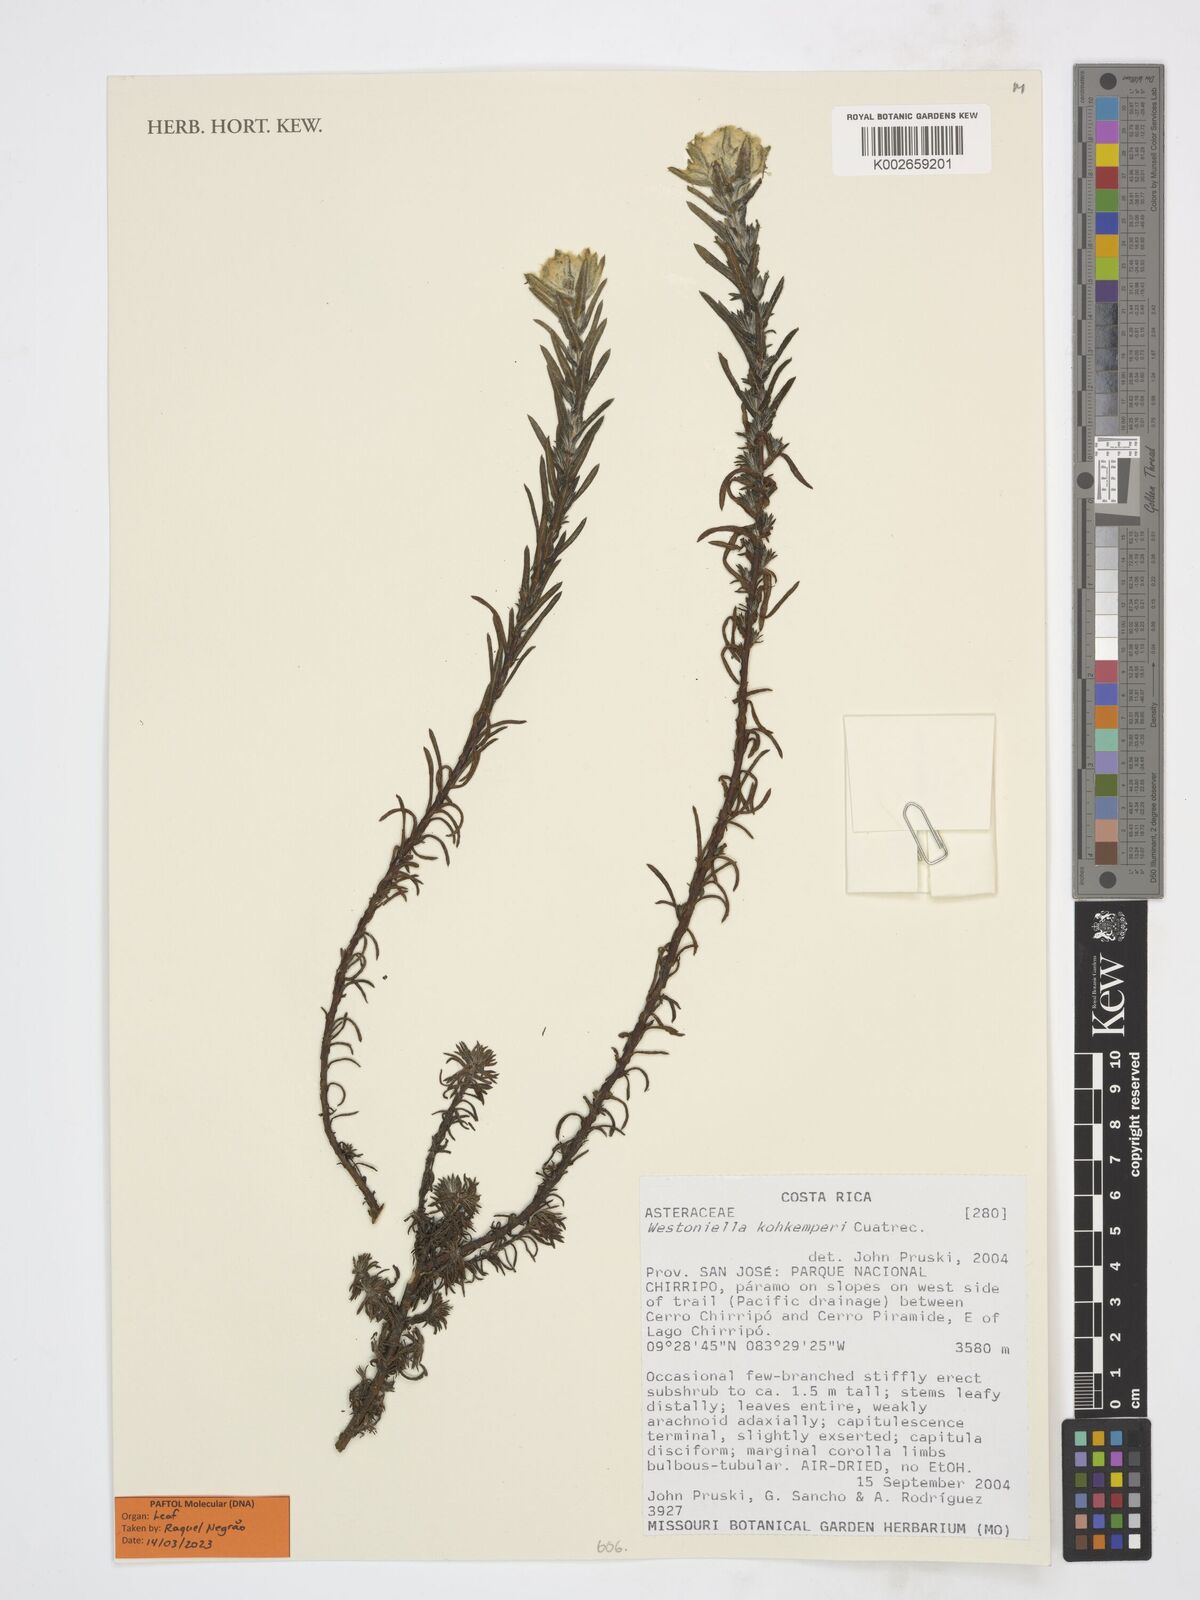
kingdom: Plantae
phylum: Tracheophyta
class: Magnoliopsida
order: Asterales
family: Asteraceae
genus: Westoniella
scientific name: Westoniella kohkemperi
